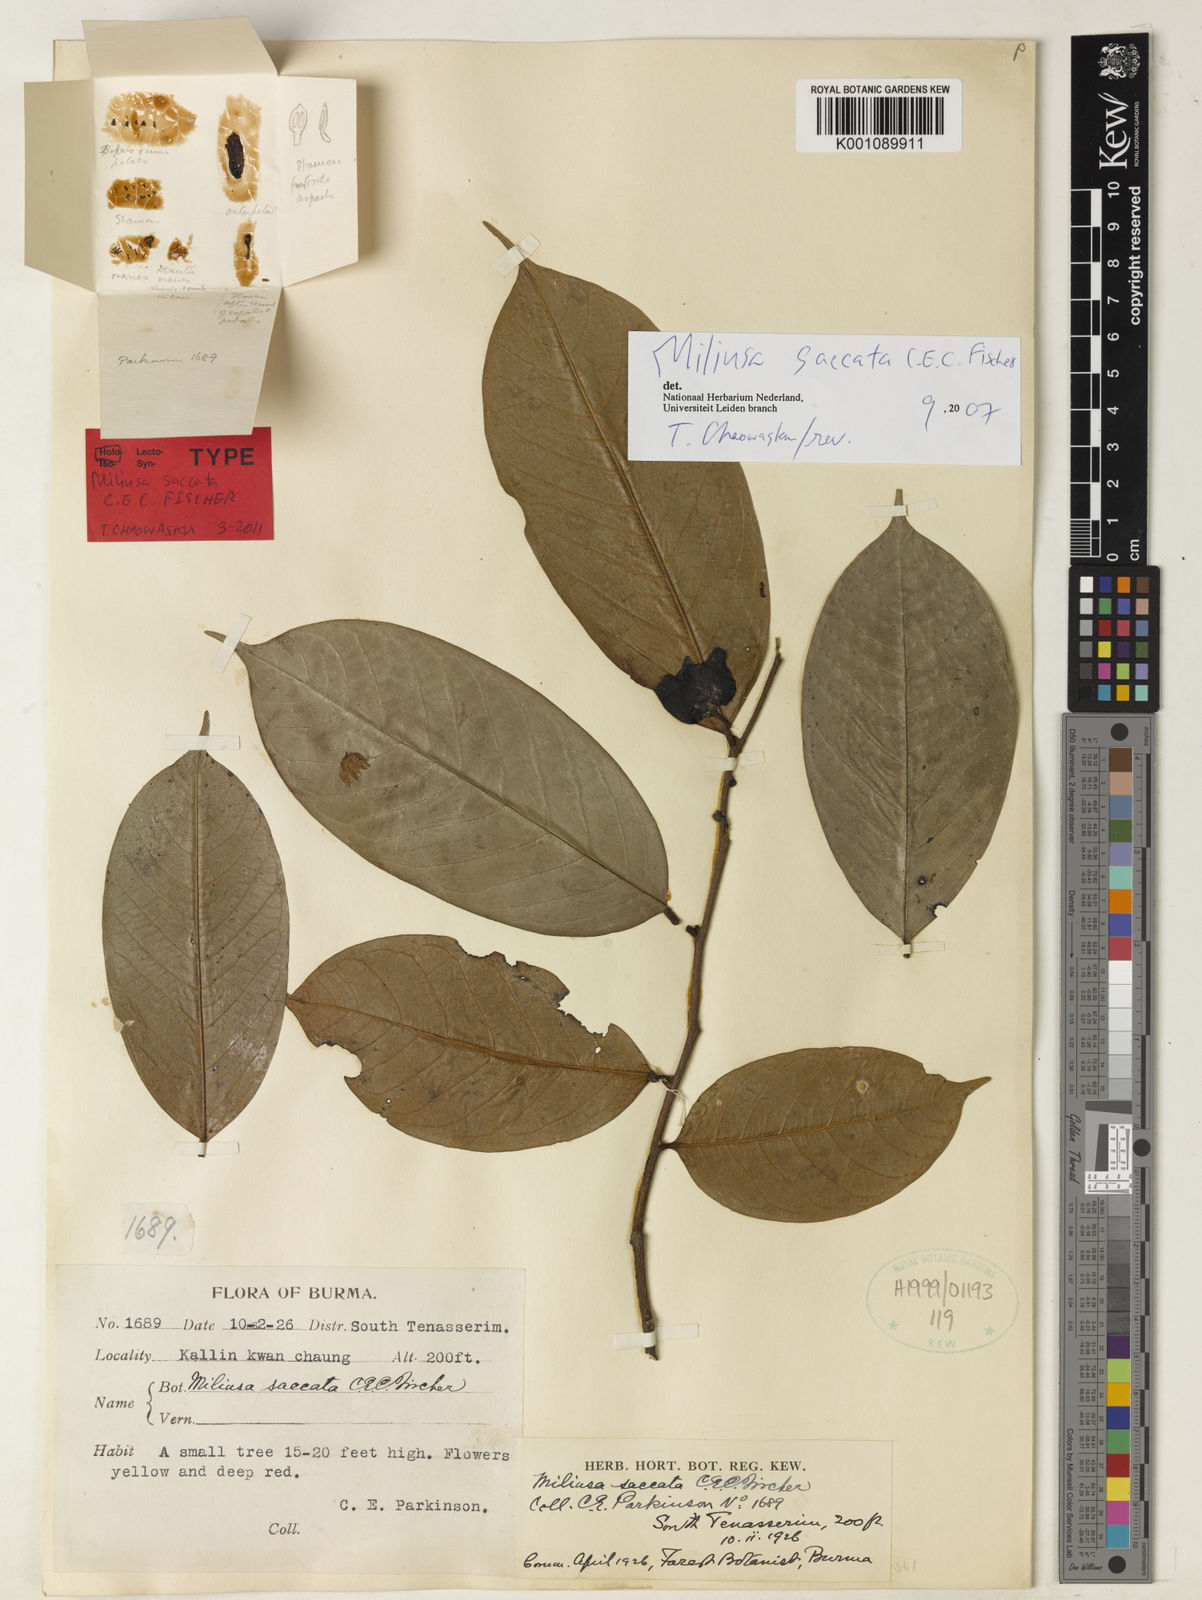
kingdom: Plantae
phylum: Tracheophyta
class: Magnoliopsida
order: Magnoliales
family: Annonaceae
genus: Miliusa
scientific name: Miliusa saccata
